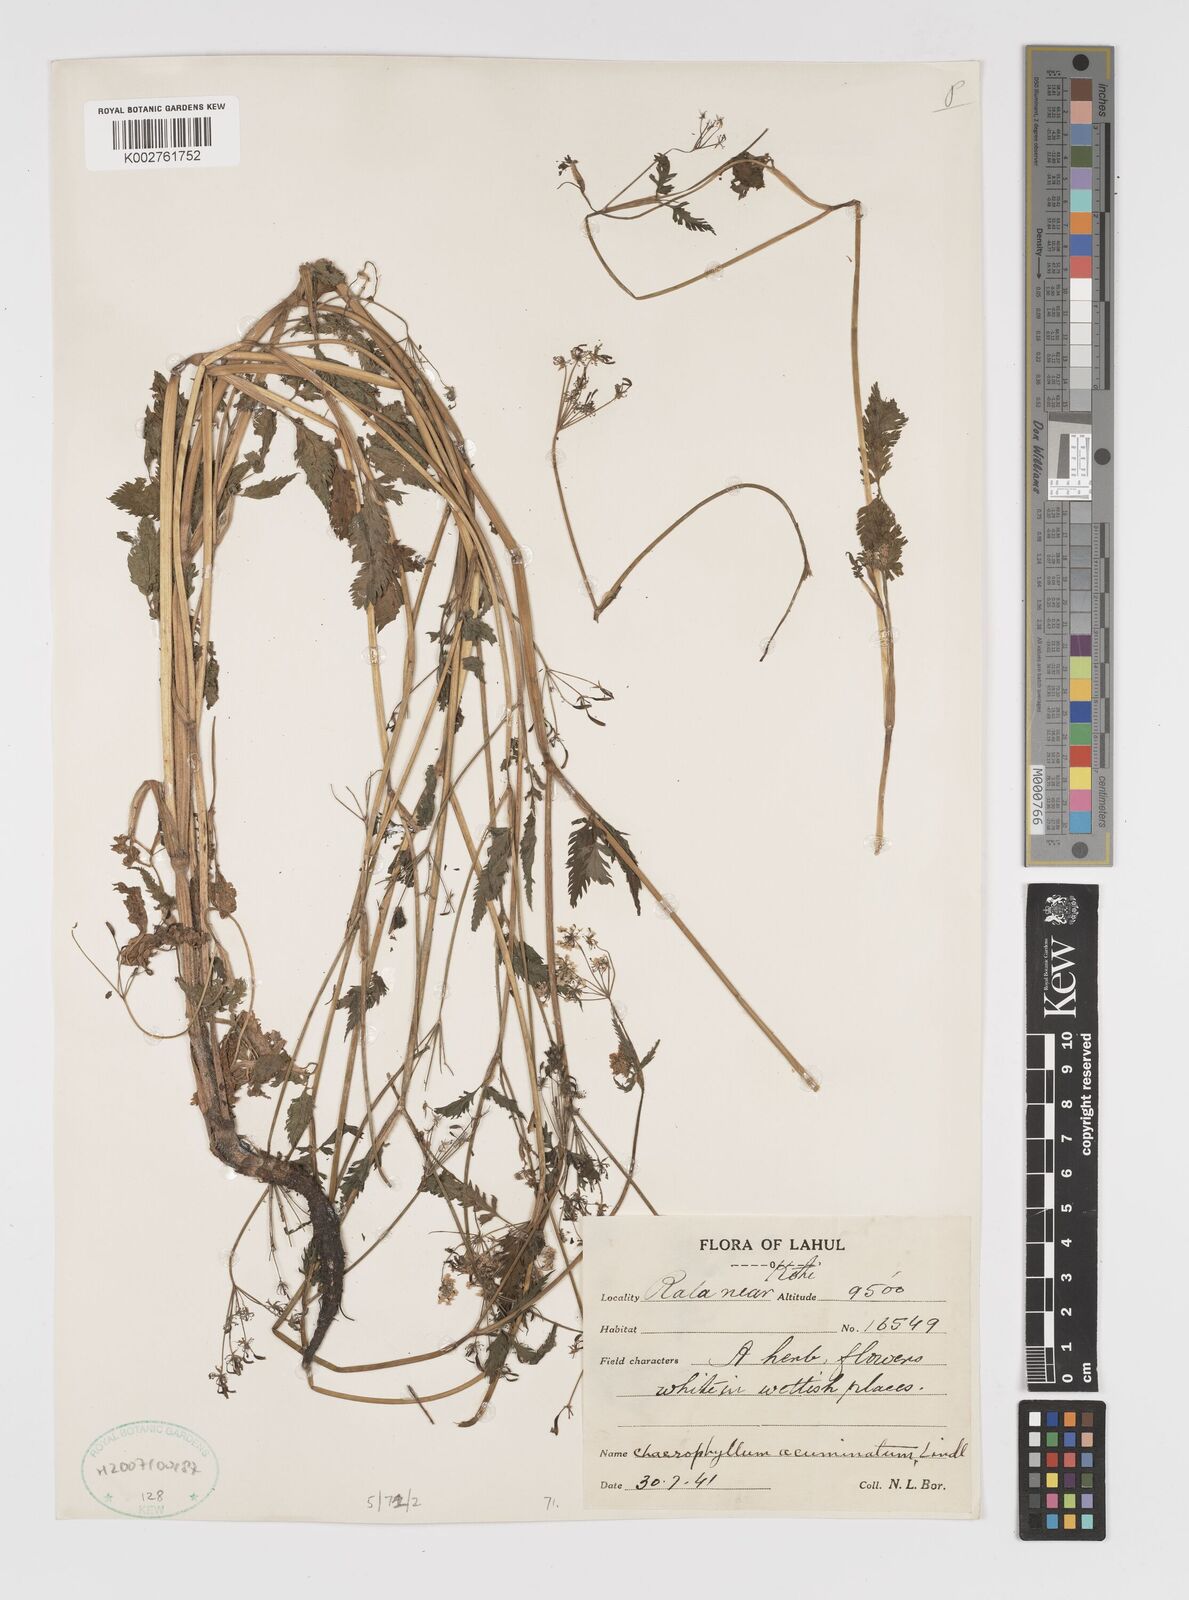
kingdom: Plantae
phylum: Tracheophyta
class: Magnoliopsida
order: Apiales
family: Apiaceae
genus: Chaerophyllum
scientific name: Chaerophyllum reflexum
